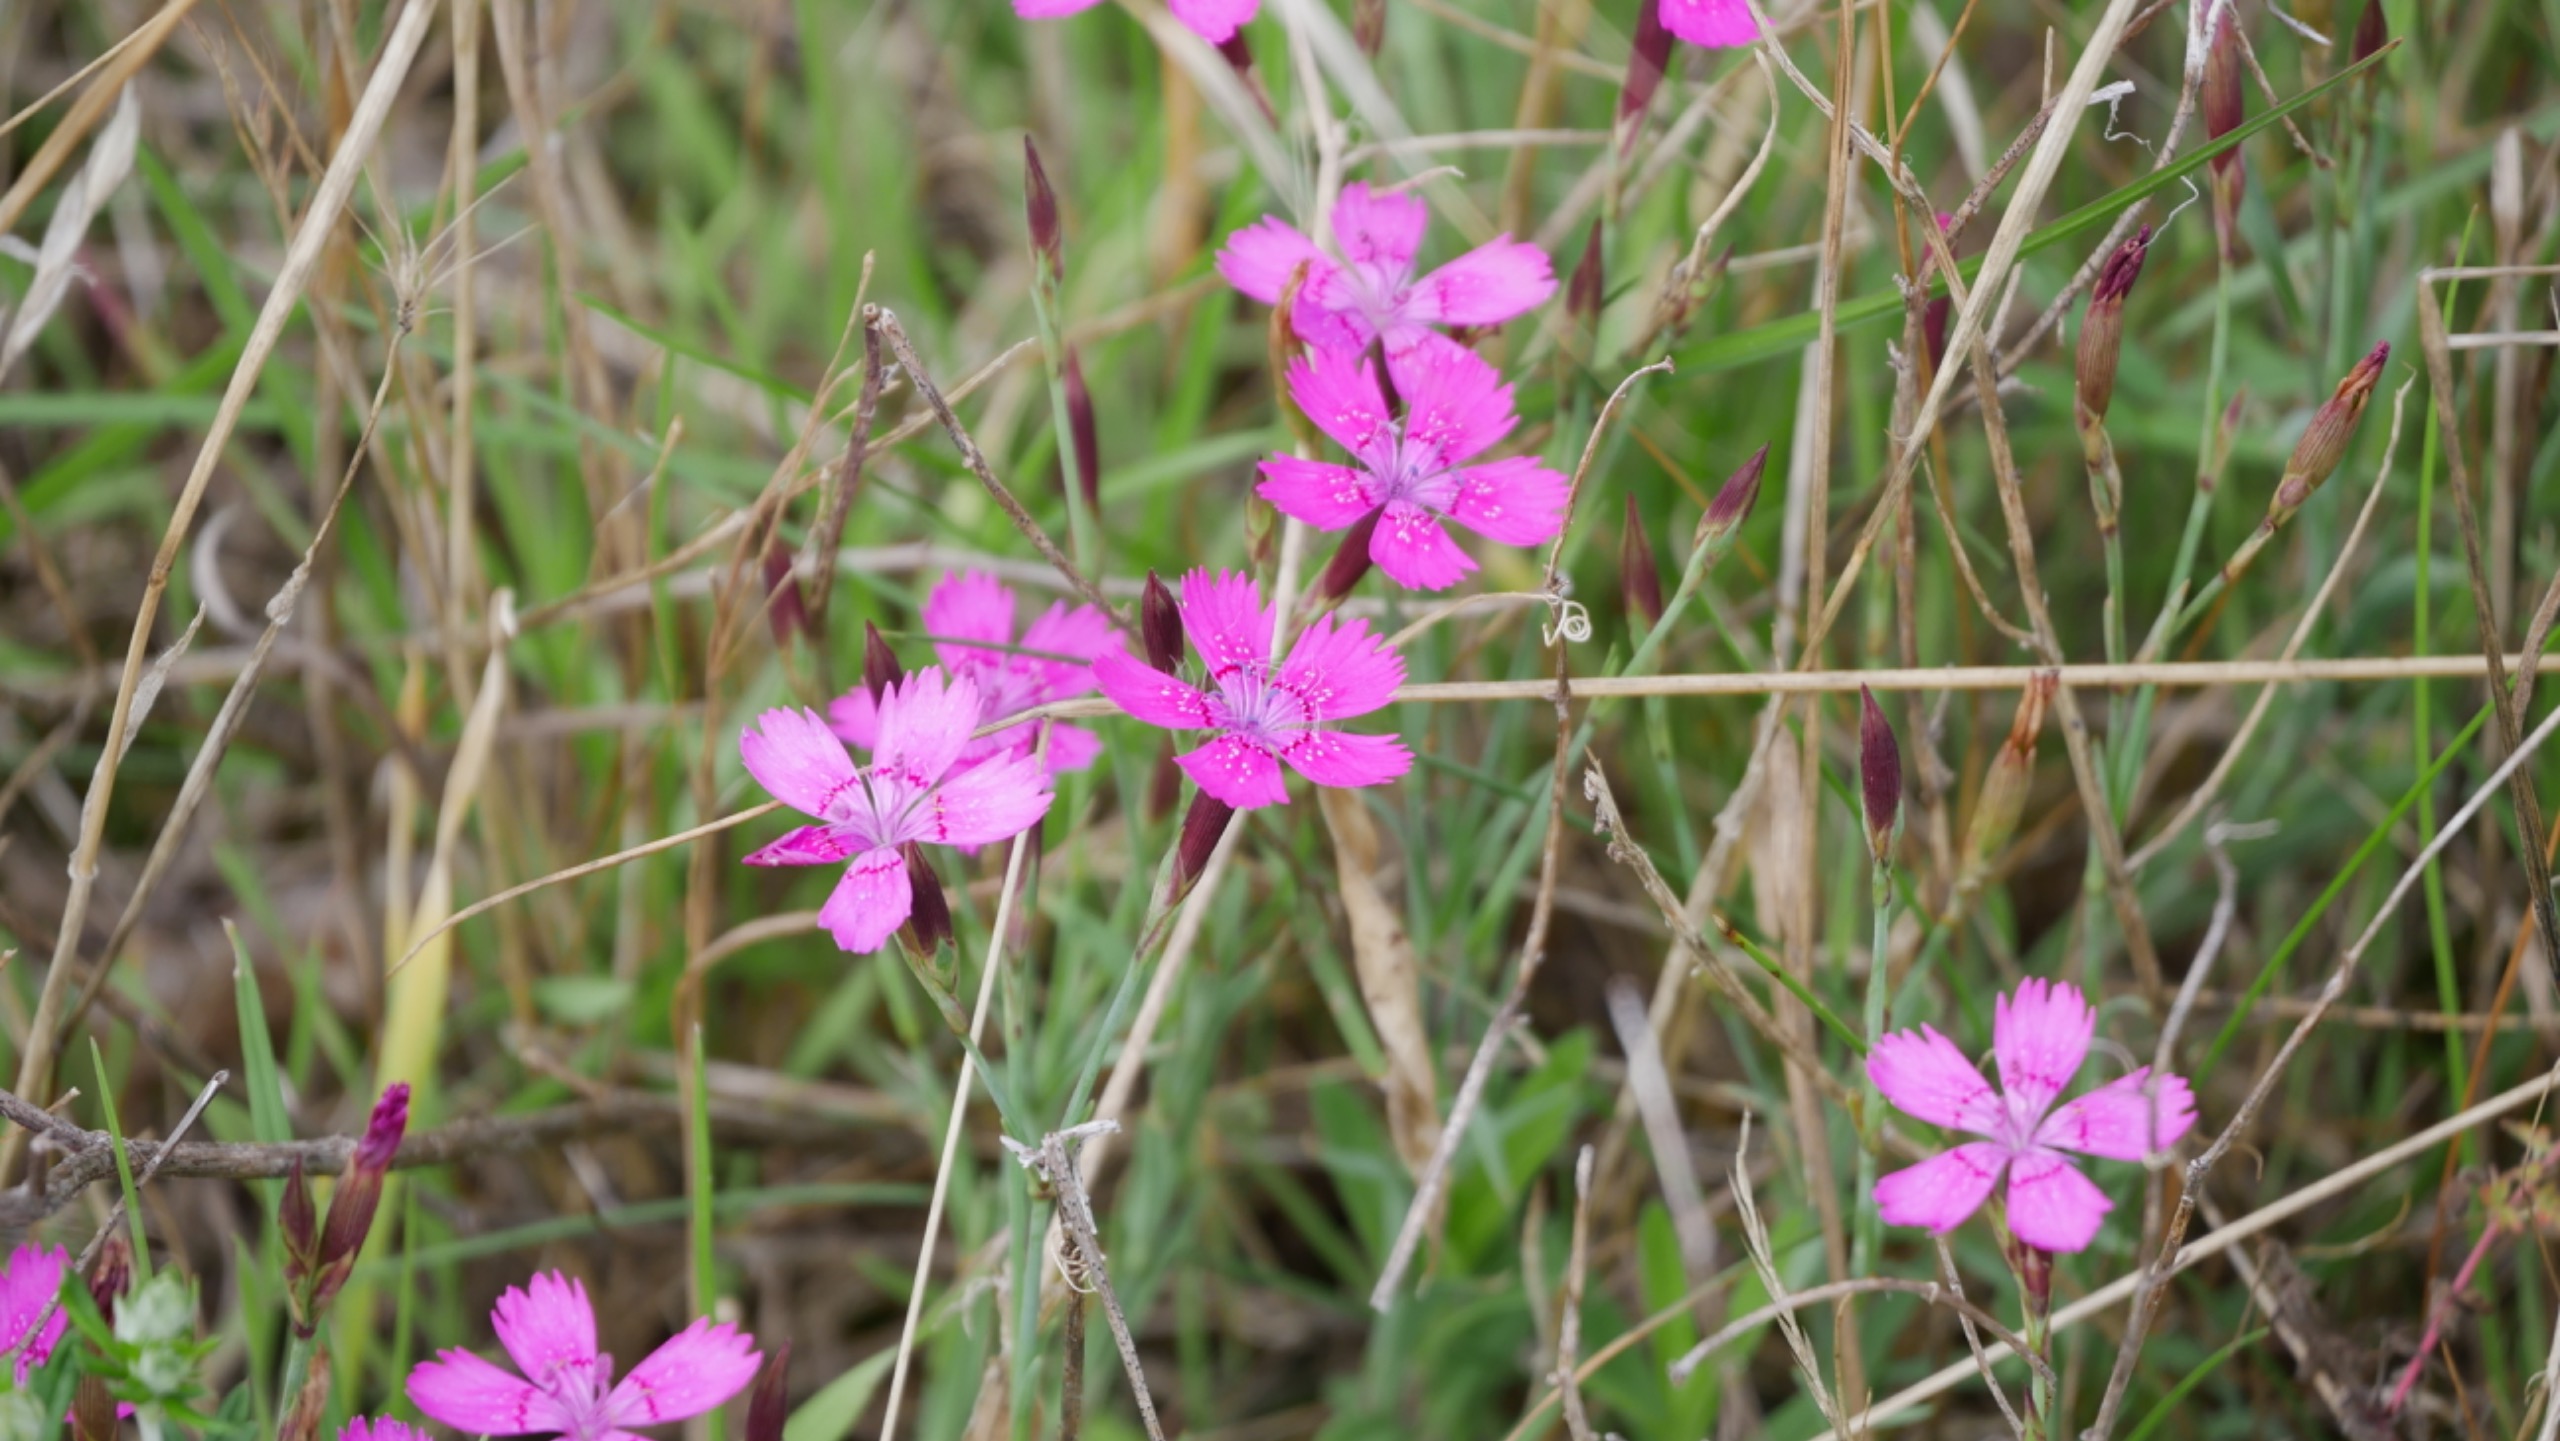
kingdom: Plantae
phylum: Tracheophyta
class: Magnoliopsida
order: Caryophyllales
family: Caryophyllaceae
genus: Dianthus
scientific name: Dianthus deltoides
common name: Bakke-nellike
